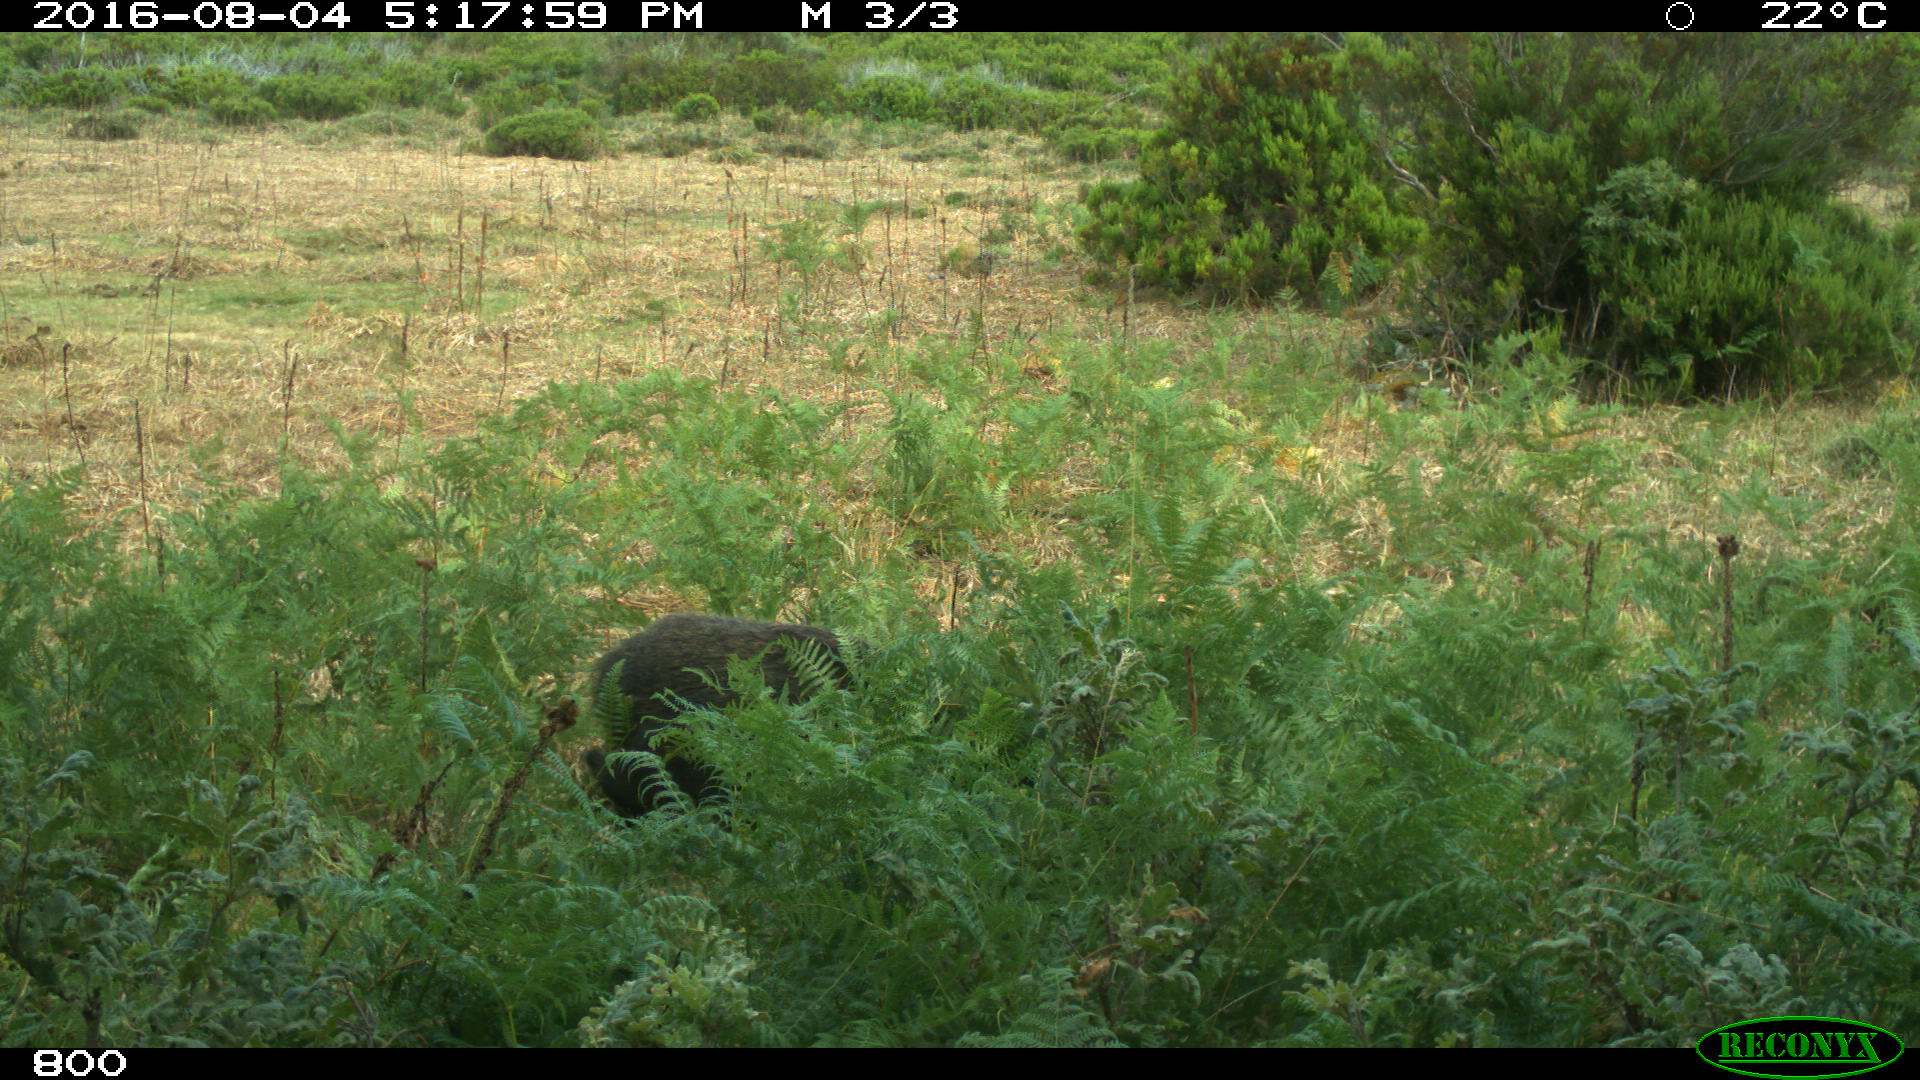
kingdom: Animalia
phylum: Chordata
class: Mammalia
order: Artiodactyla
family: Suidae
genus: Sus
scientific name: Sus scrofa
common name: Wild boar
